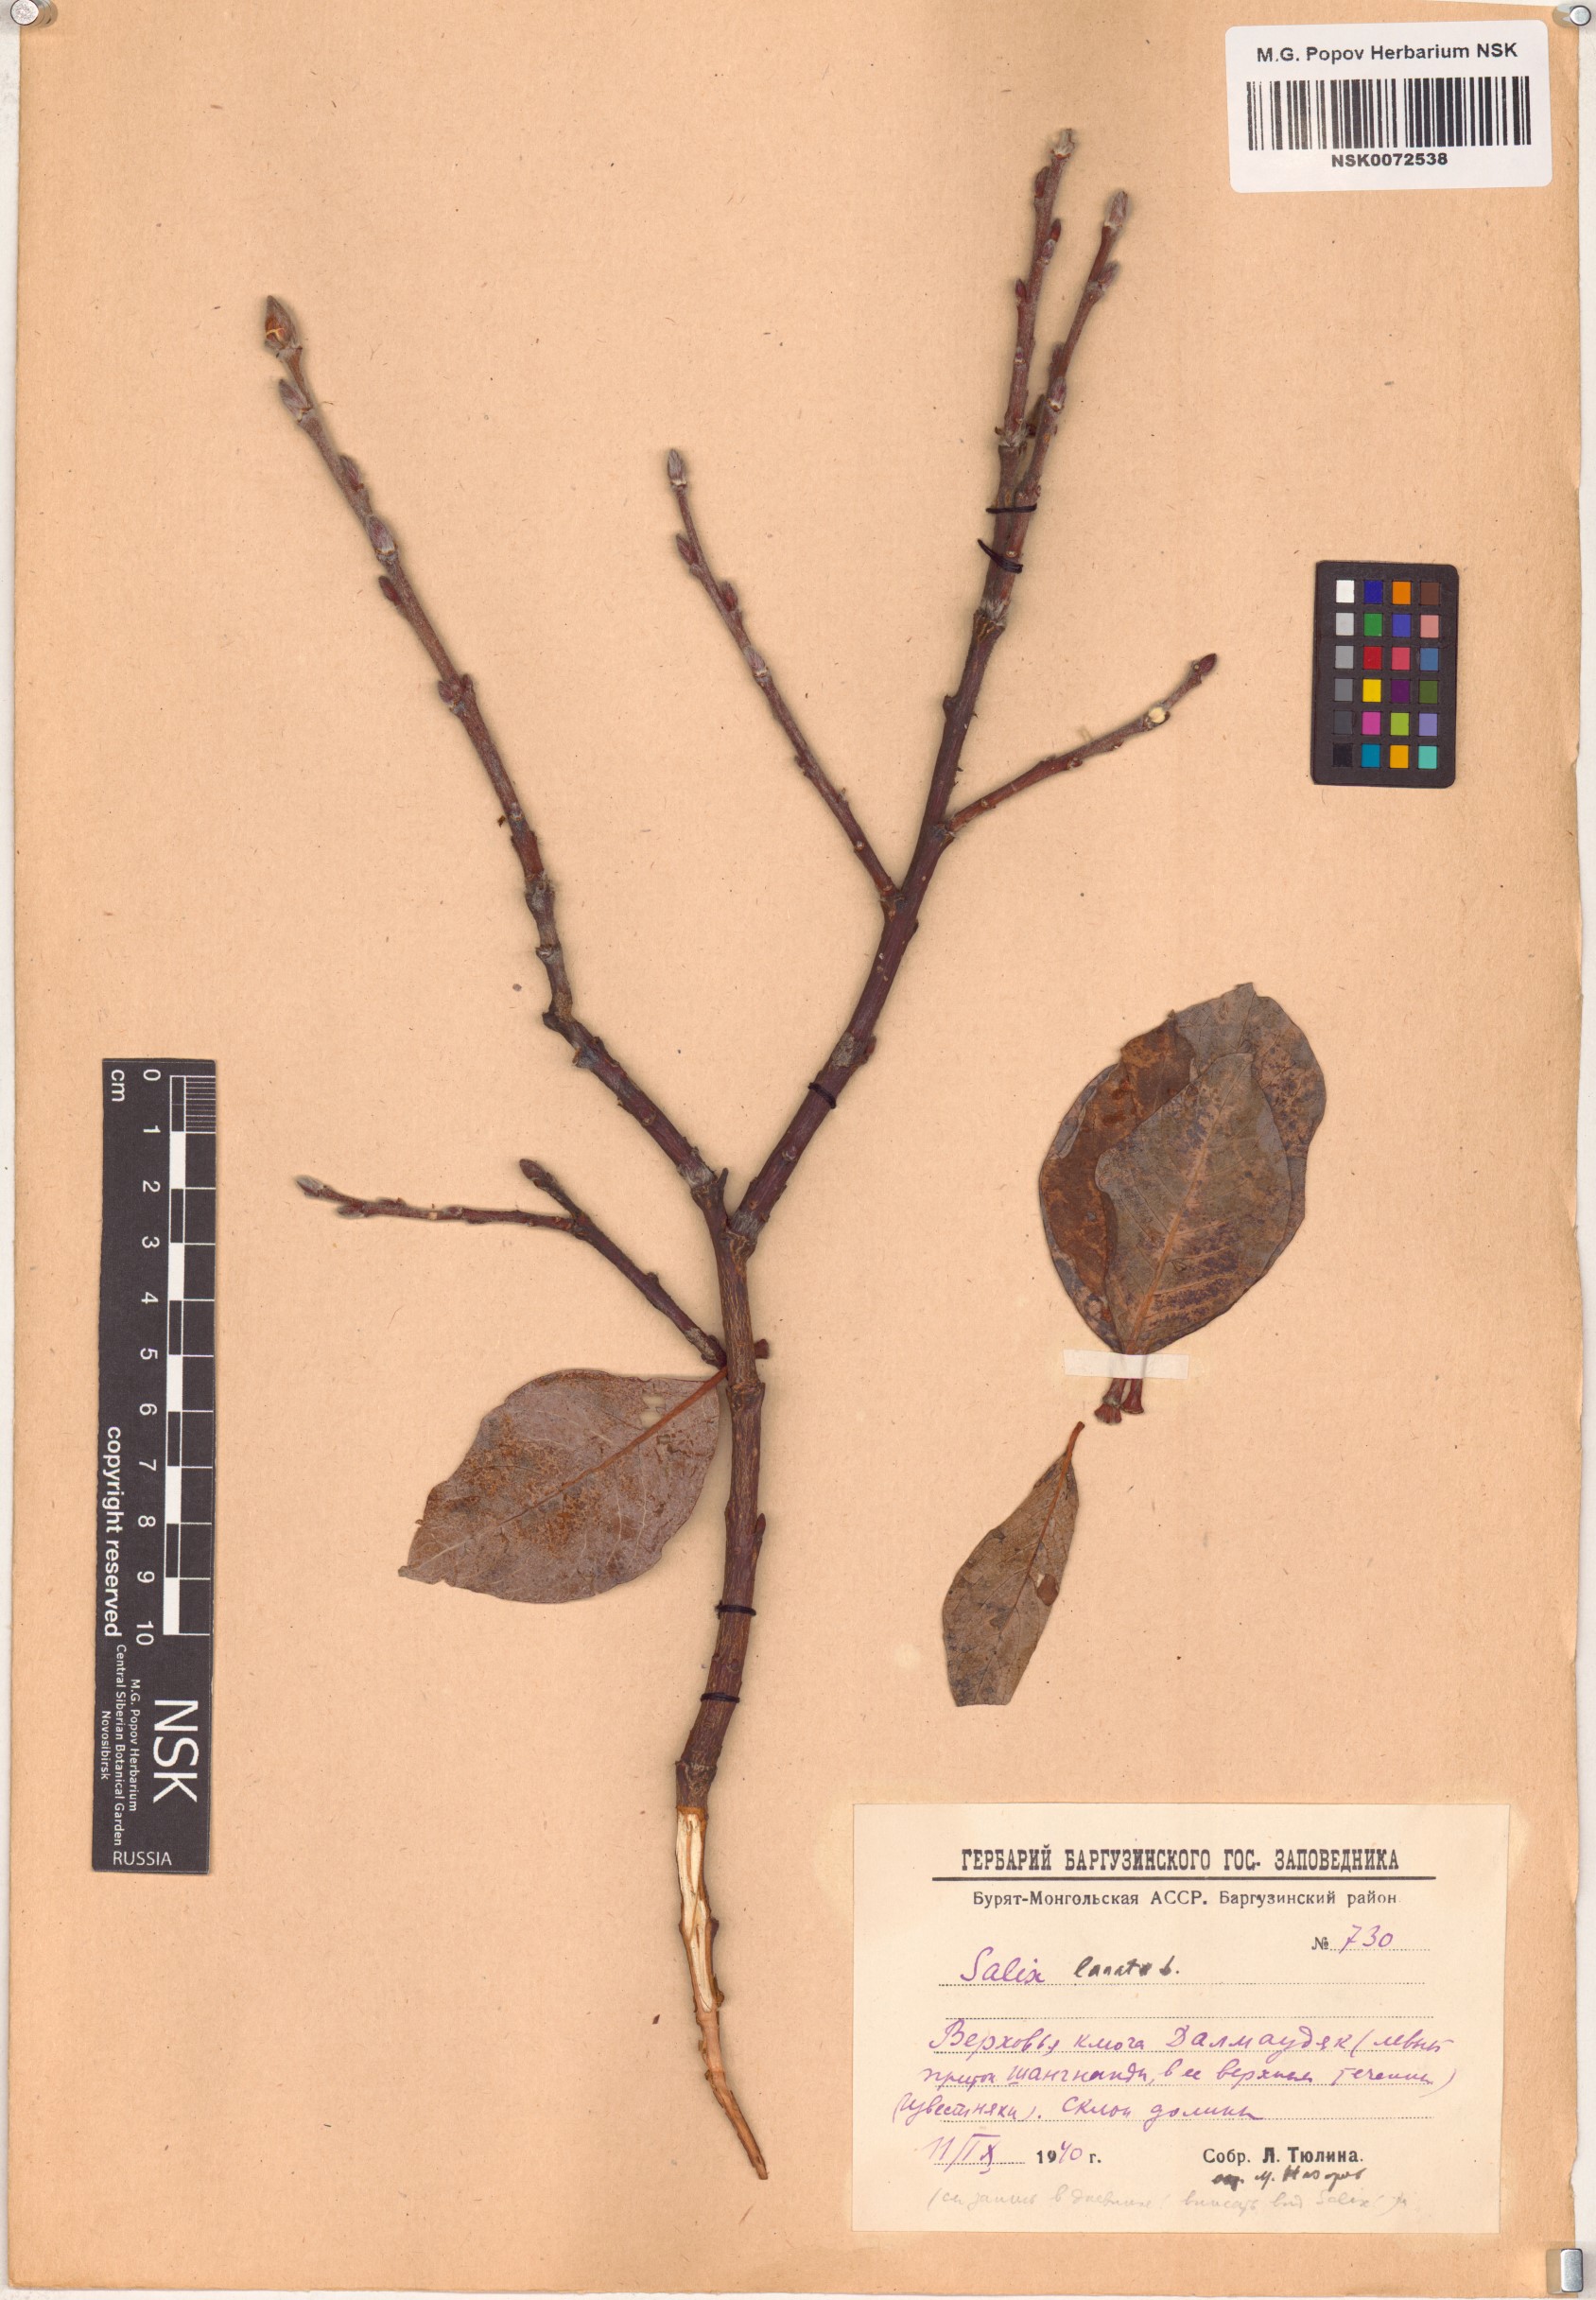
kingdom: Plantae
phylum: Tracheophyta
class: Magnoliopsida
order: Malpighiales
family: Salicaceae
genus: Salix
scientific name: Salix lanata
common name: Woolly willow
